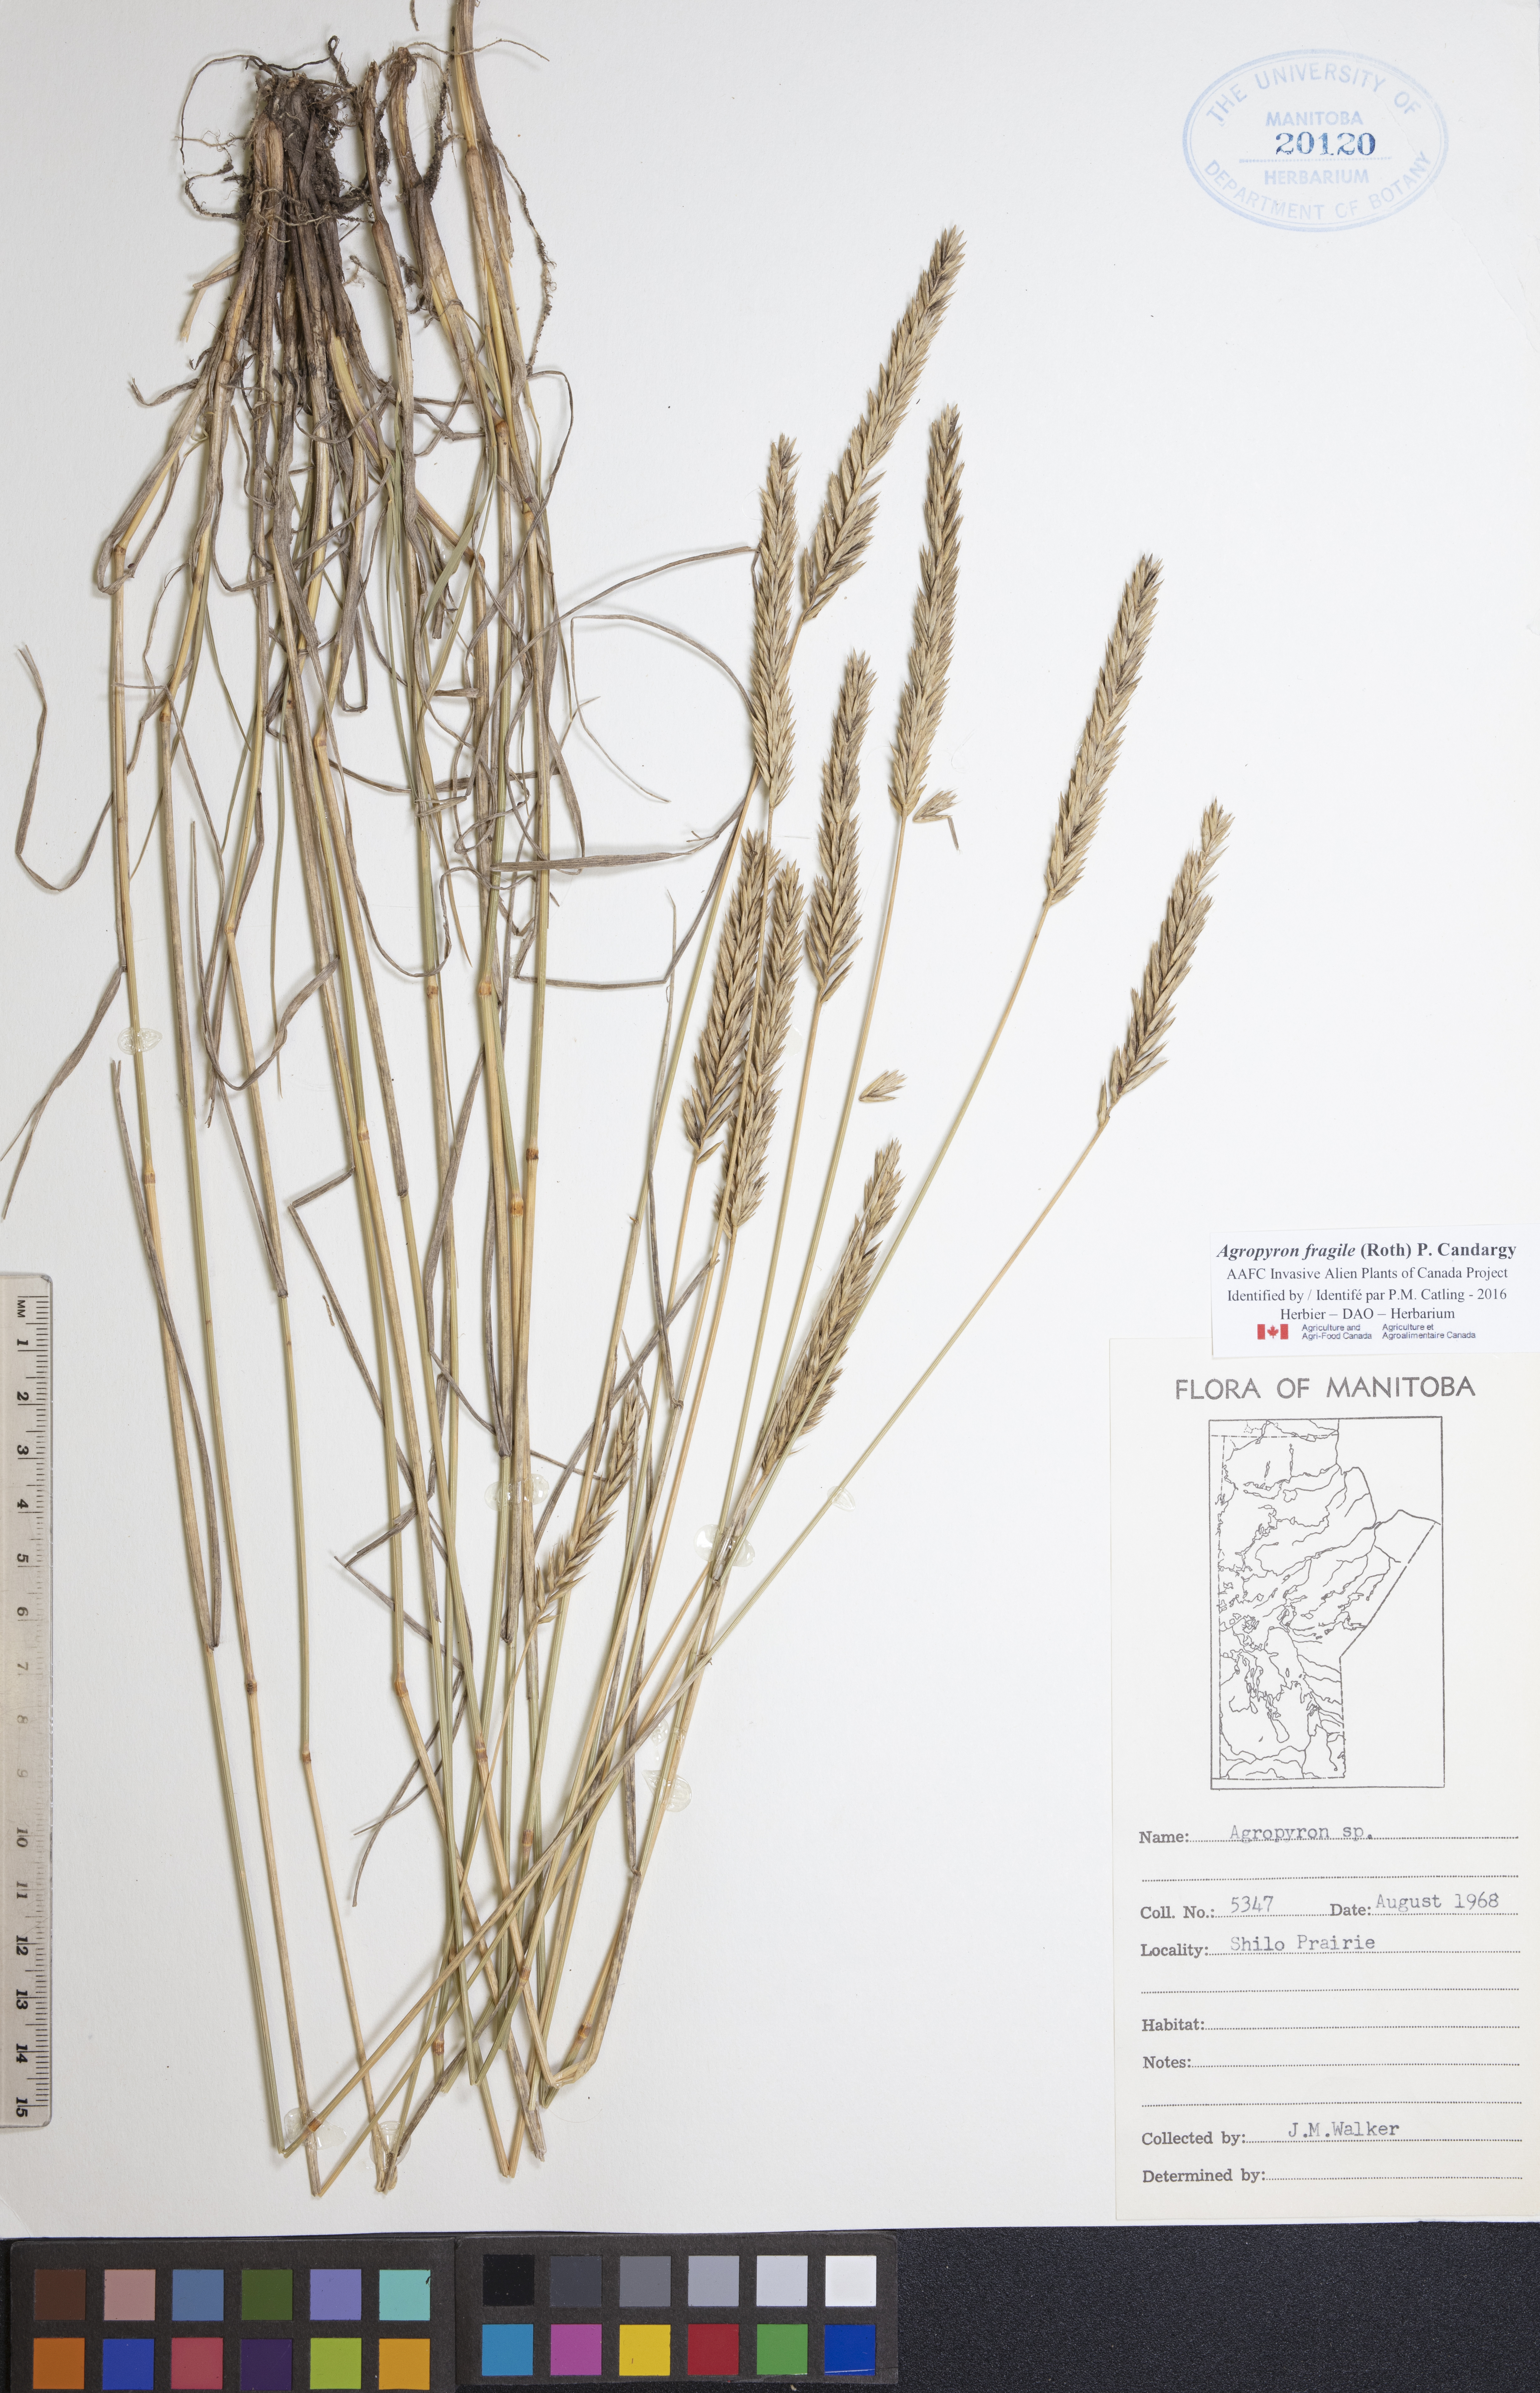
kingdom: Plantae
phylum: Tracheophyta
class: Liliopsida
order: Poales
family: Poaceae
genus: Agropyron
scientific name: Agropyron fragile
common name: Siberian wheatgrass
